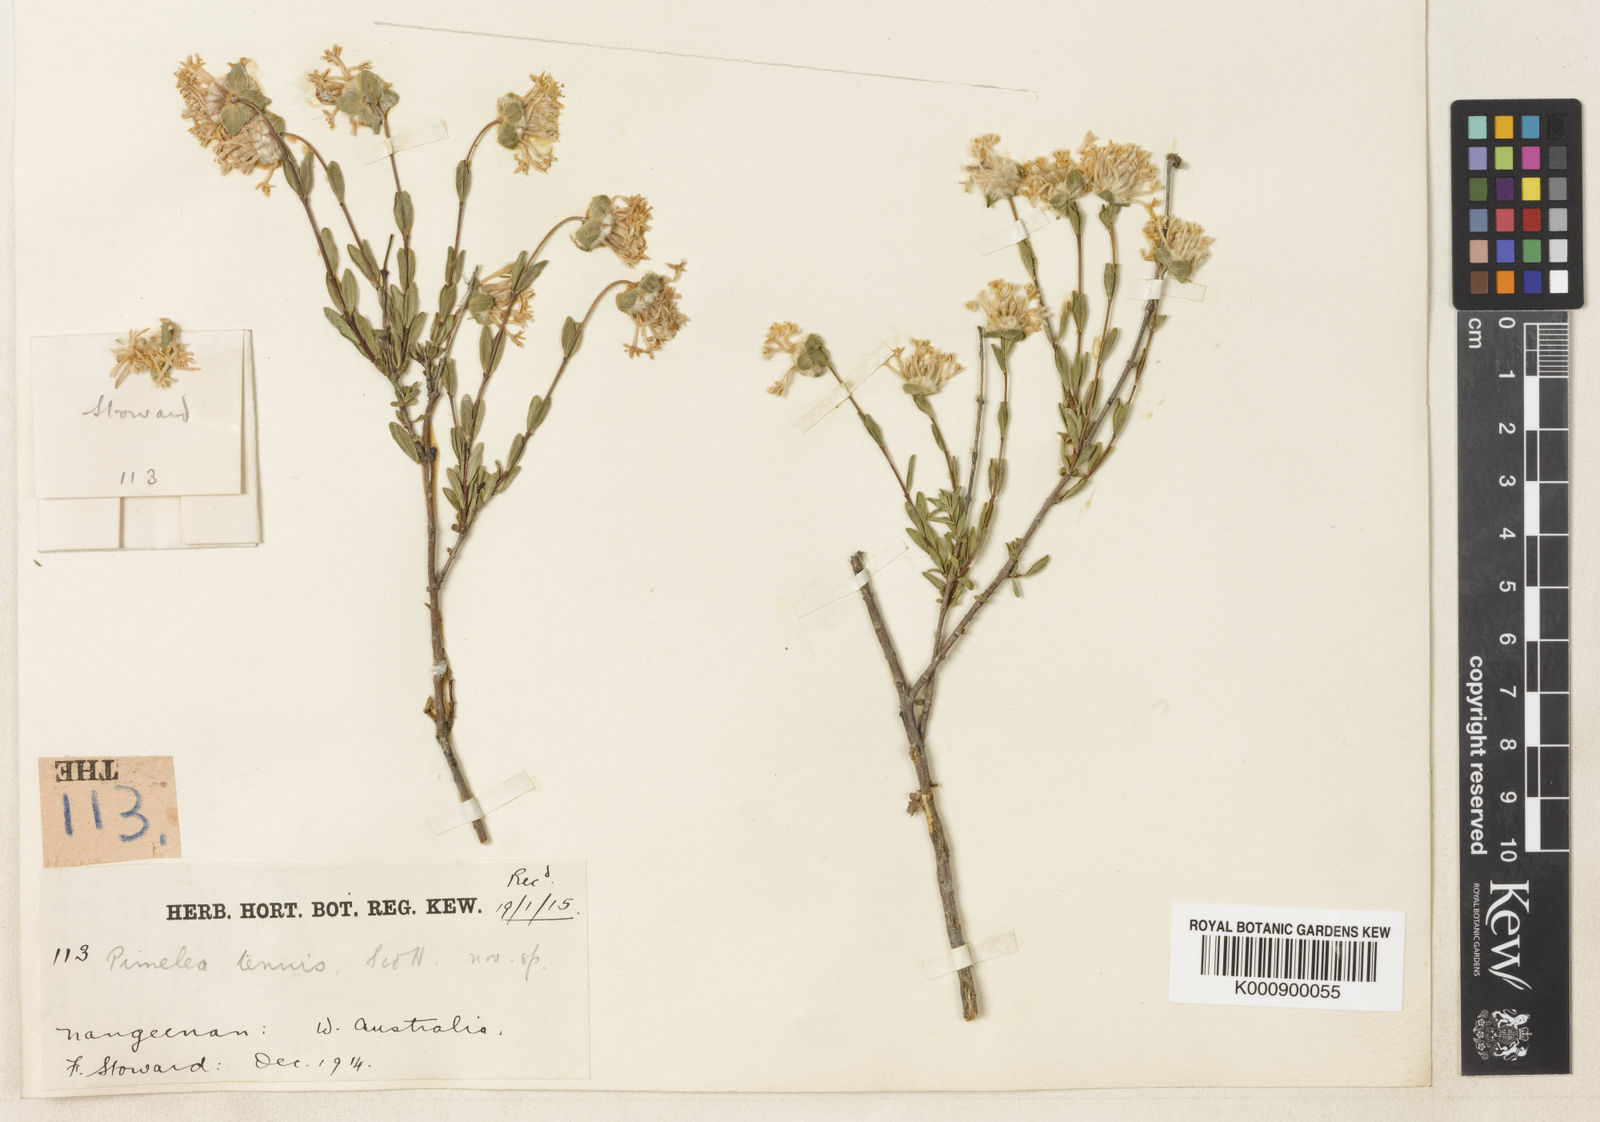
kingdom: Plantae
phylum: Tracheophyta
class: Magnoliopsida
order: Malvales
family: Thymelaeaceae
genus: Pimelea
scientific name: Pimelea angustifolia
